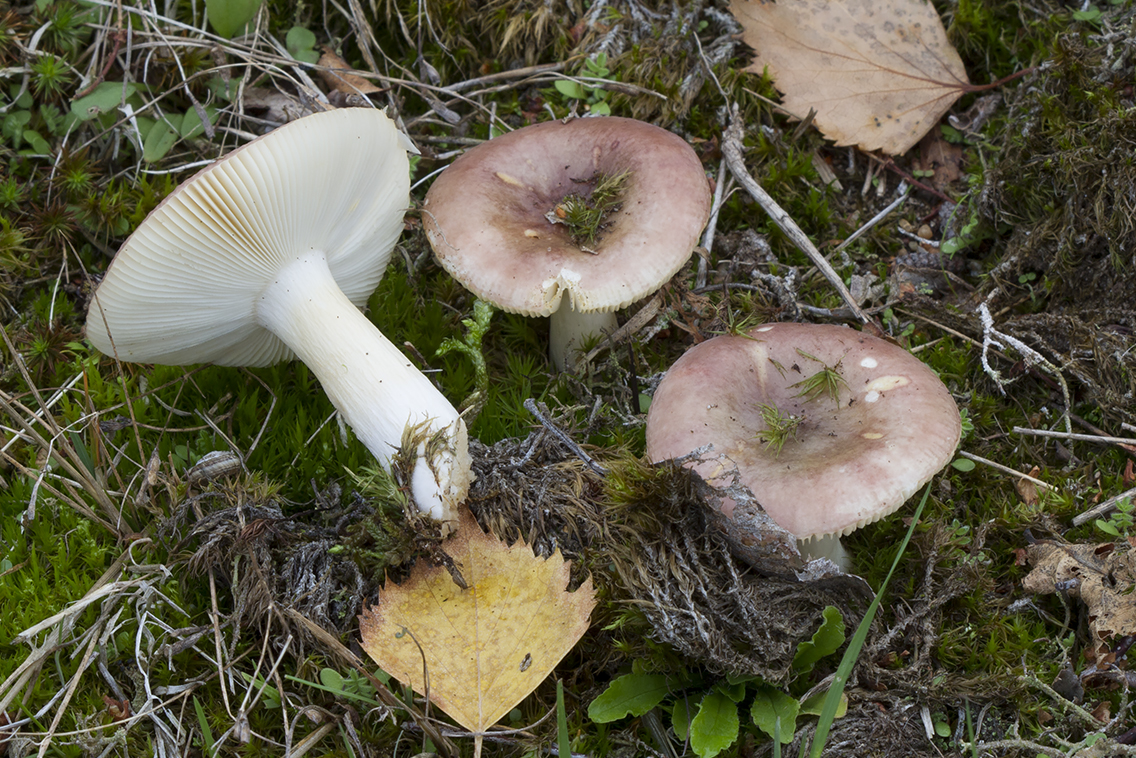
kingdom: Fungi
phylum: Basidiomycota
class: Agaricomycetes
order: Russulales
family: Russulaceae
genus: Russula
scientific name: Russula versicolor
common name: foranderlig skørhat
